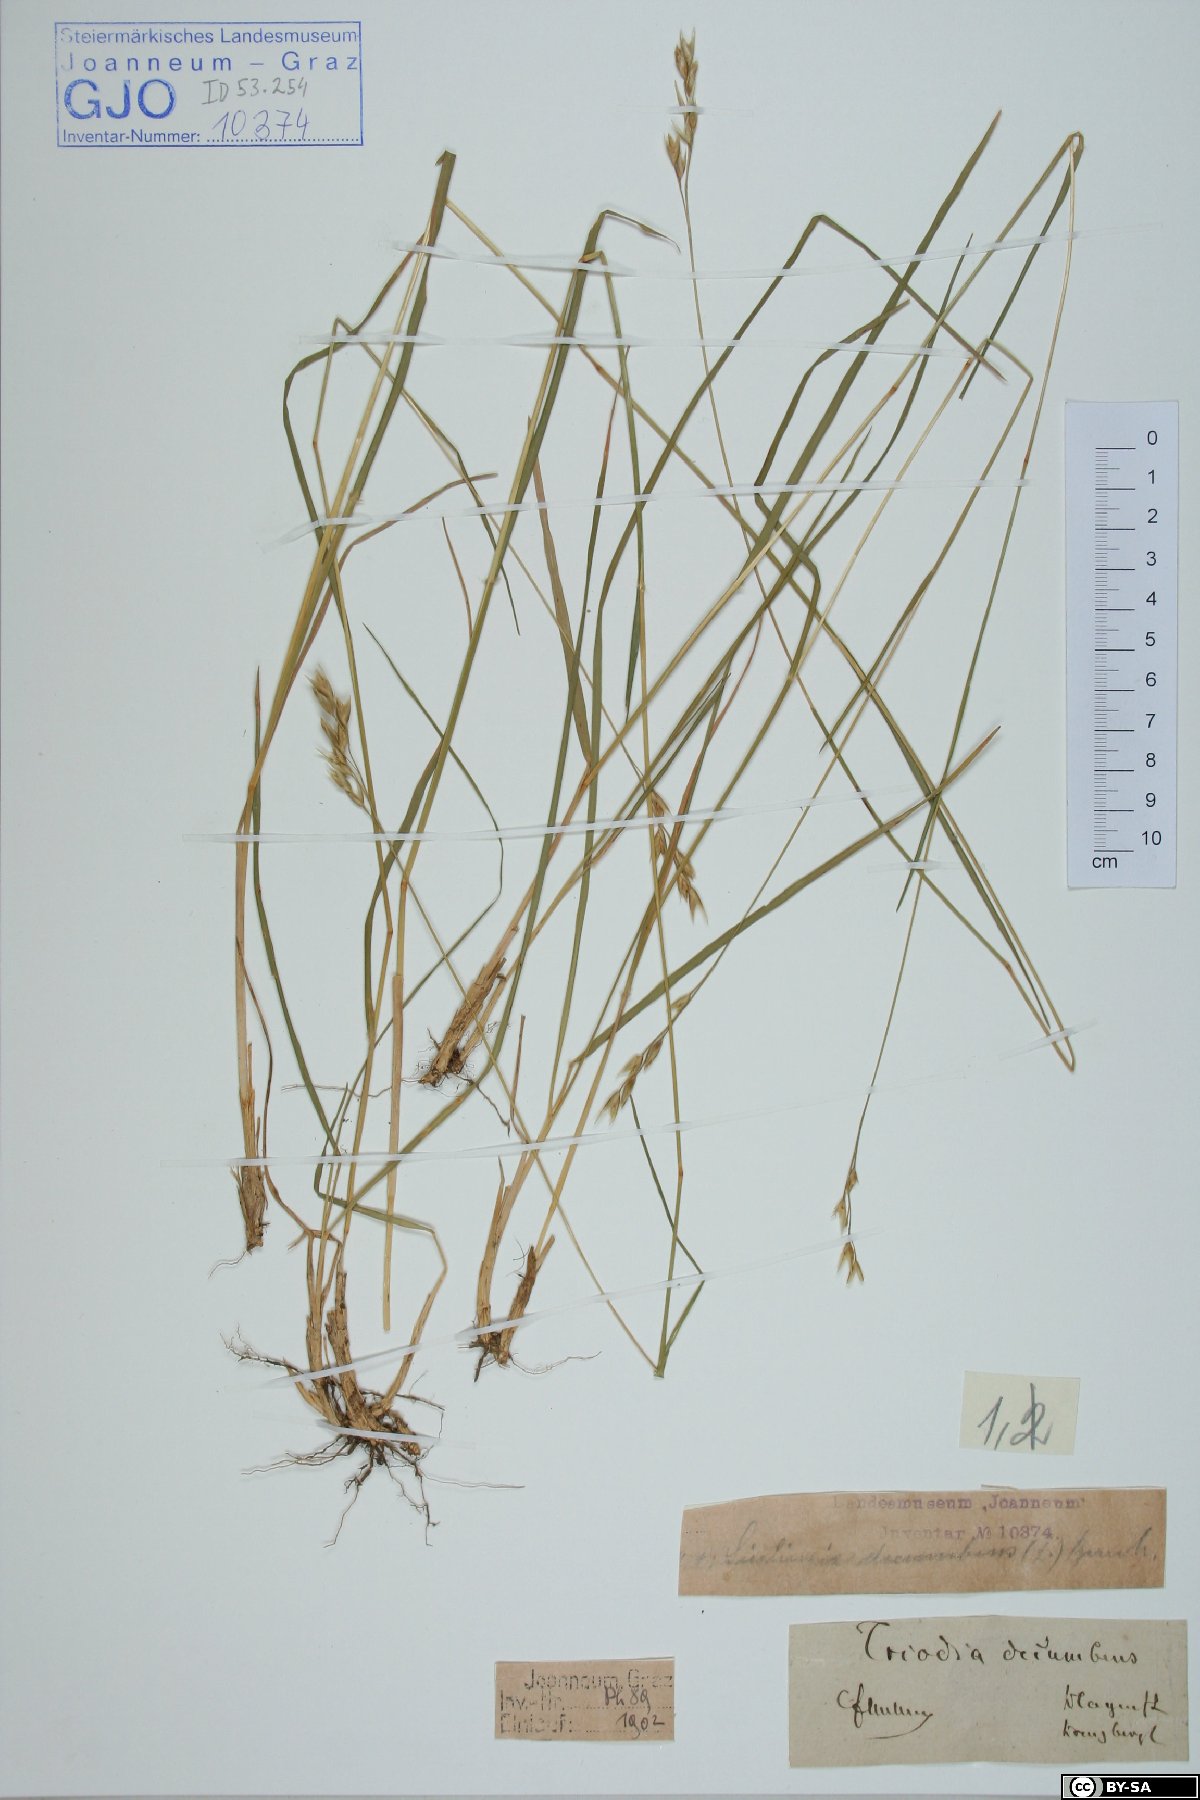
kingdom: Plantae
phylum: Tracheophyta
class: Liliopsida
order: Poales
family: Poaceae
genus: Danthonia
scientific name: Danthonia decumbens
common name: Common heathgrass
